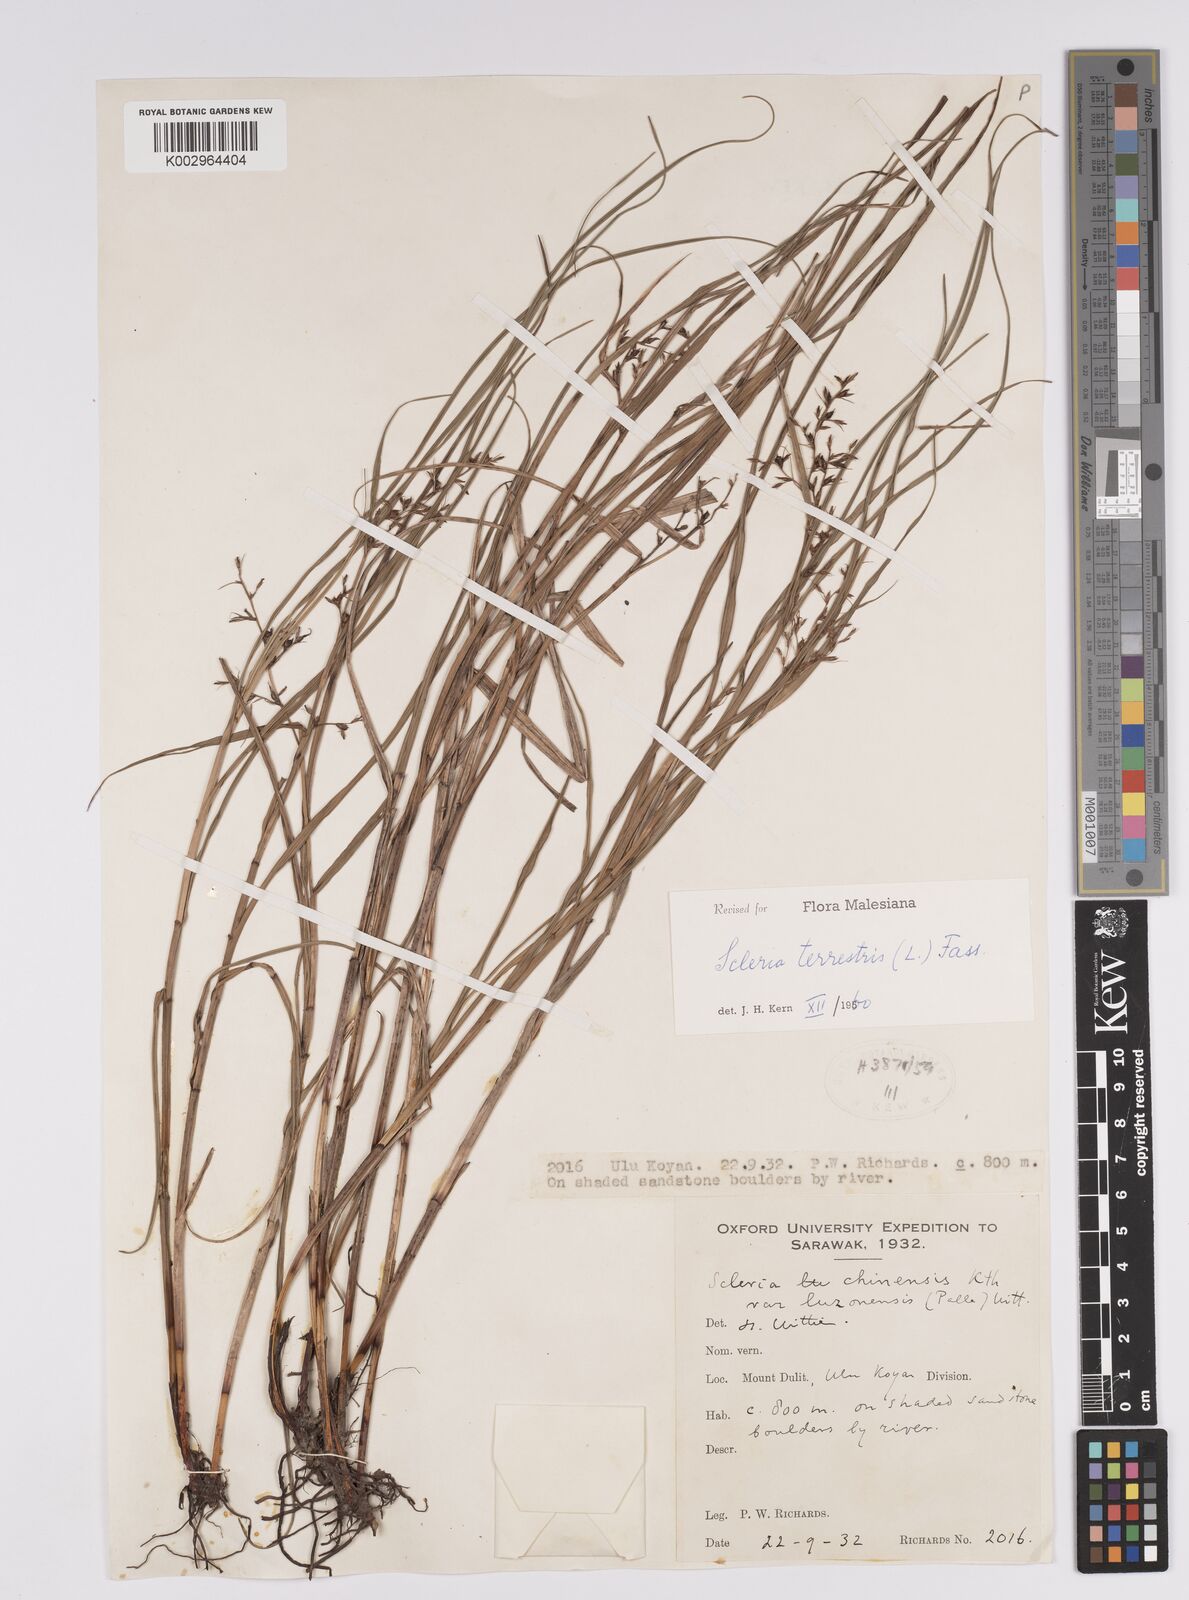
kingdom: Plantae
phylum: Tracheophyta
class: Liliopsida
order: Poales
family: Cyperaceae
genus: Scleria
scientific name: Scleria terrestris
